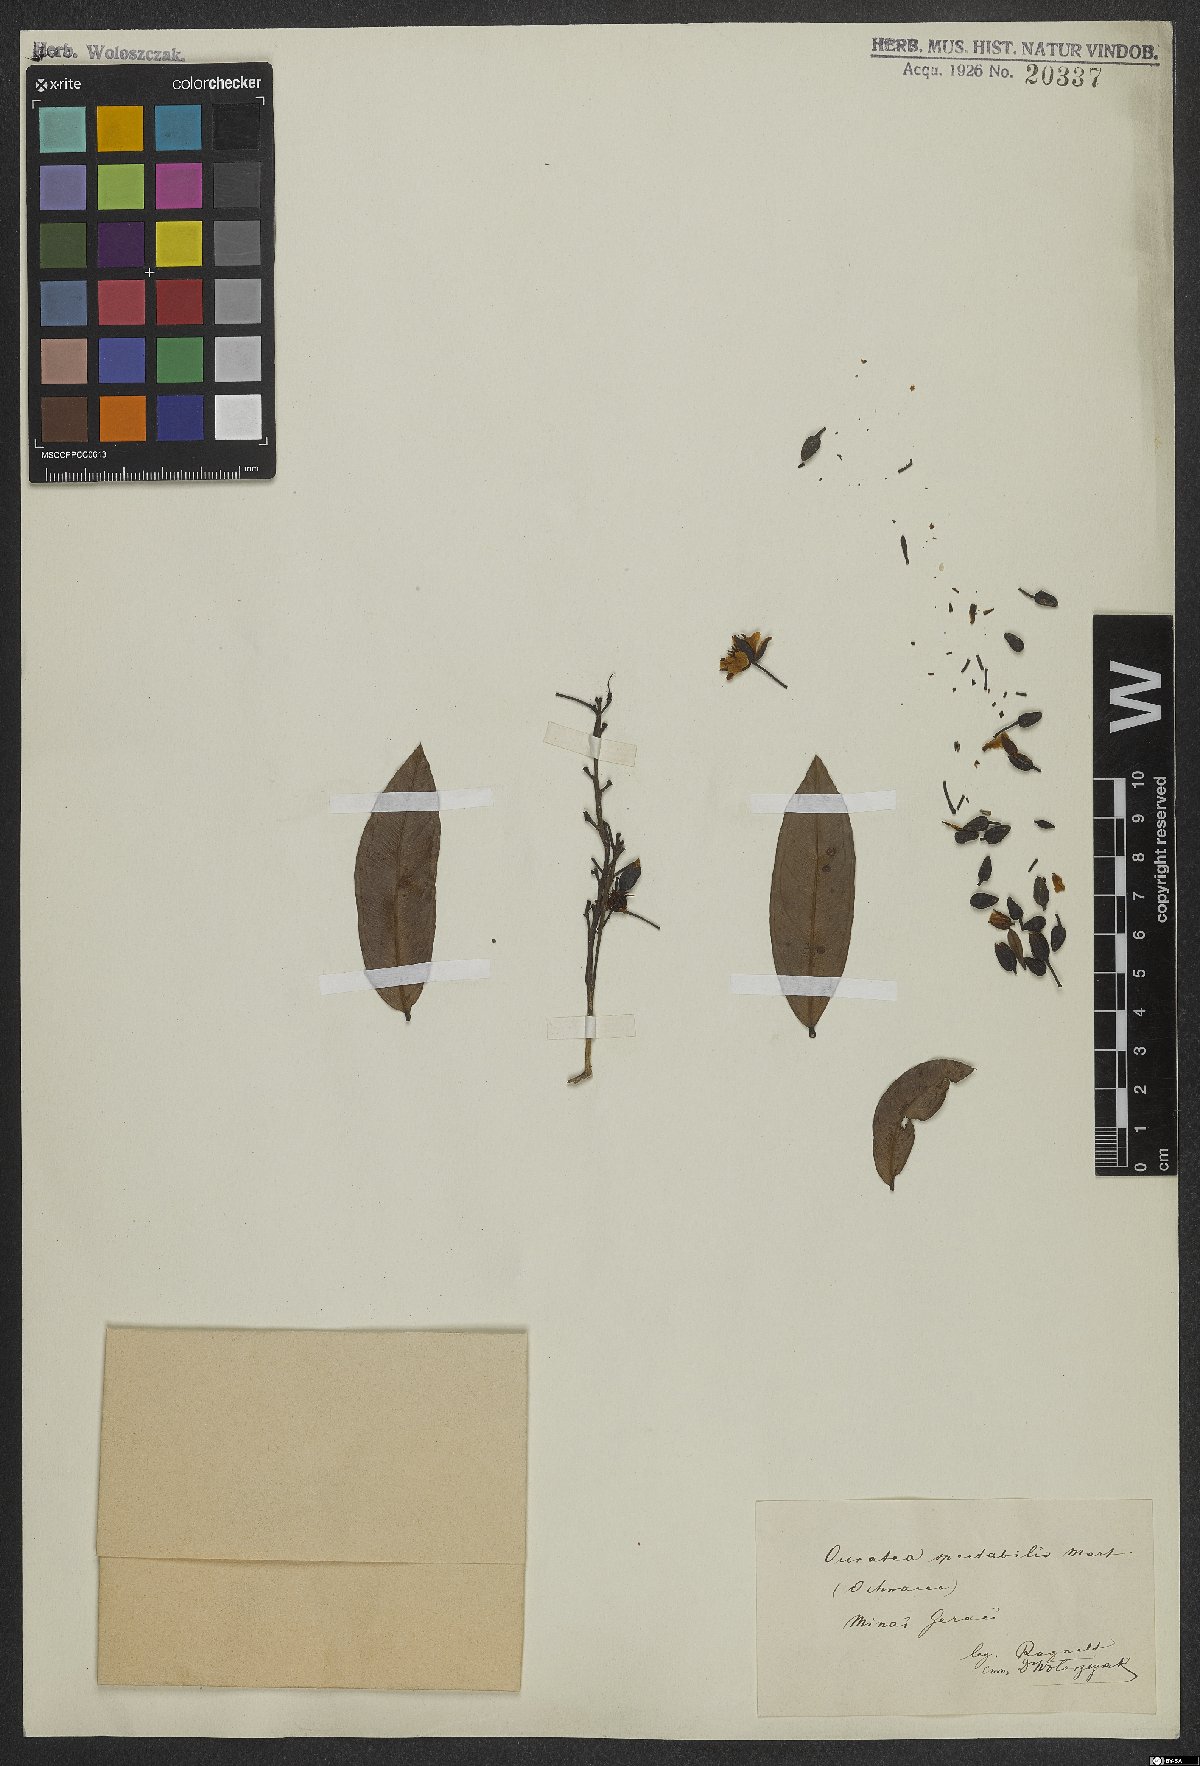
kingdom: Plantae
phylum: Tracheophyta
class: Magnoliopsida
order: Malpighiales
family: Ochnaceae
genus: Ouratea
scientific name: Ouratea spectabilis
